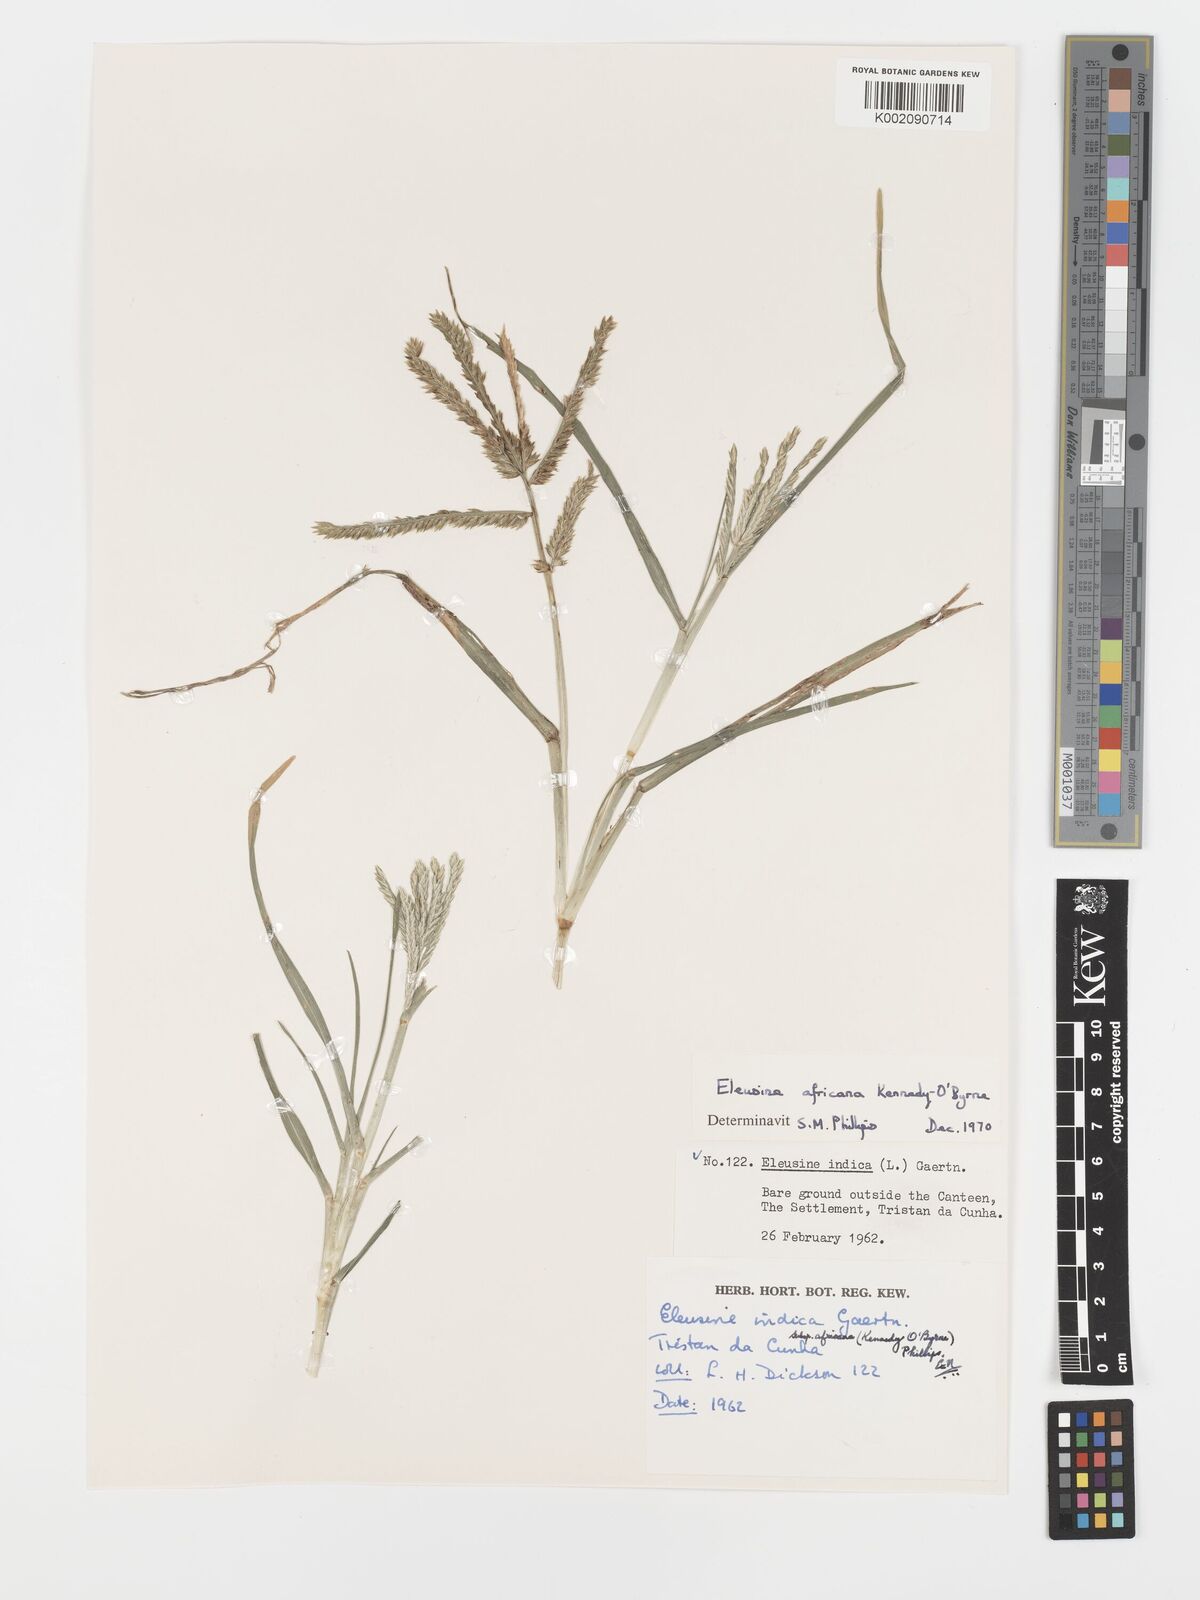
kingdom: Plantae
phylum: Tracheophyta
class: Liliopsida
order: Poales
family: Poaceae
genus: Eleusine
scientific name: Eleusine africana
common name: Wild african finger millet
